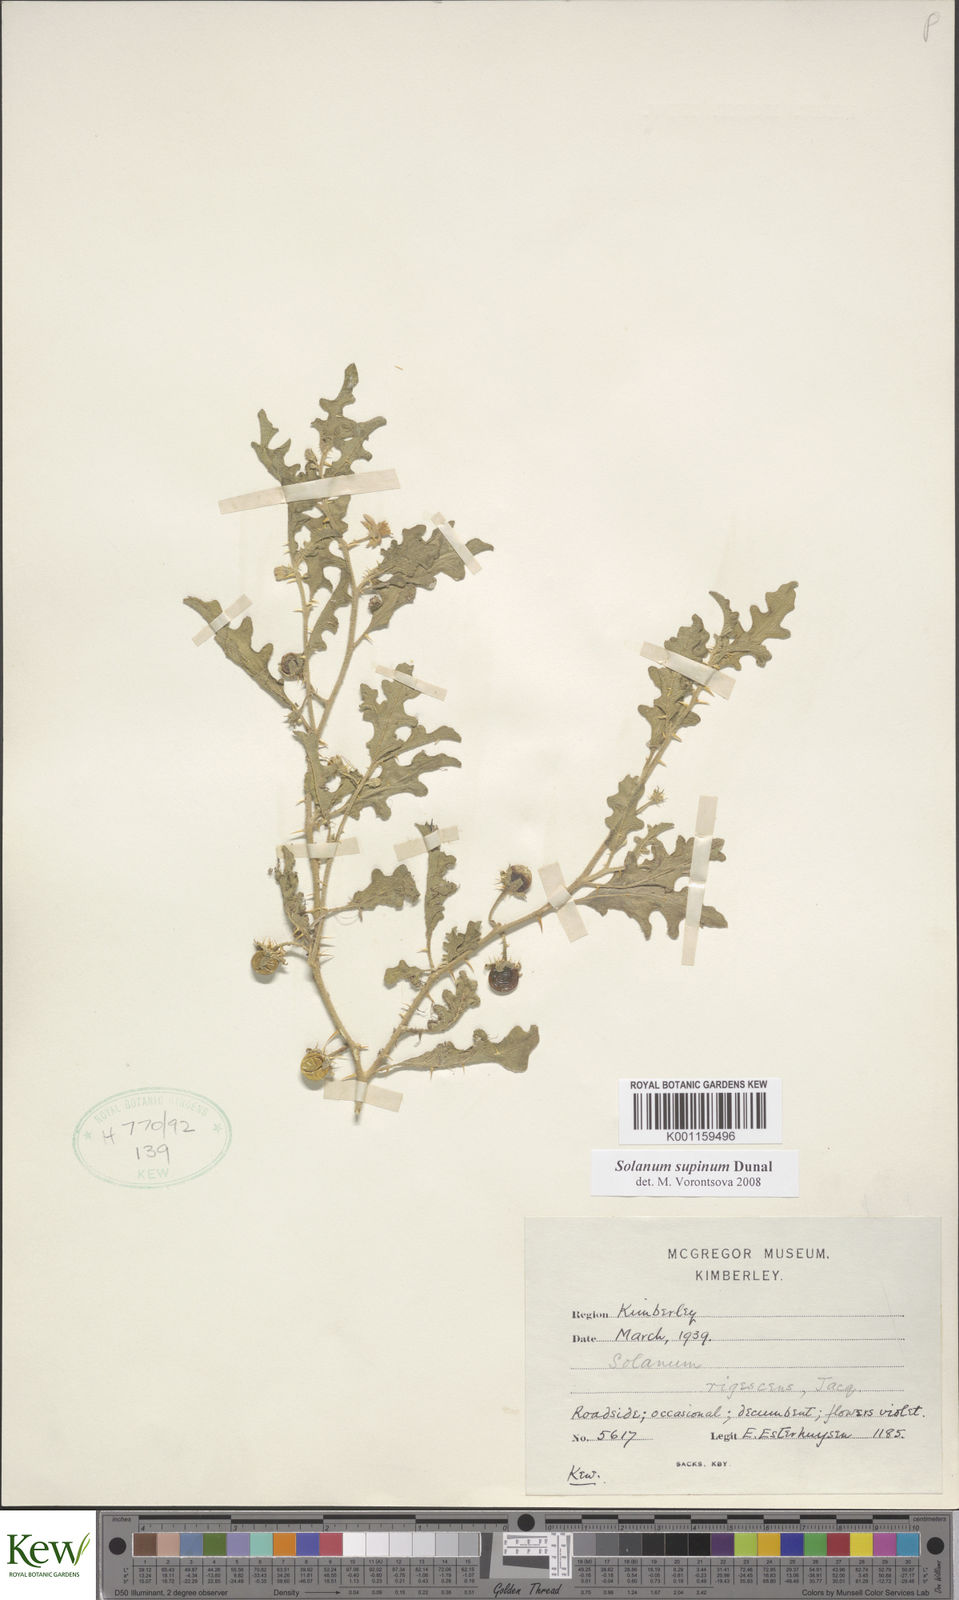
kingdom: Plantae
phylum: Tracheophyta
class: Magnoliopsida
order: Solanales
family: Solanaceae
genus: Solanum
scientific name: Solanum supinum
